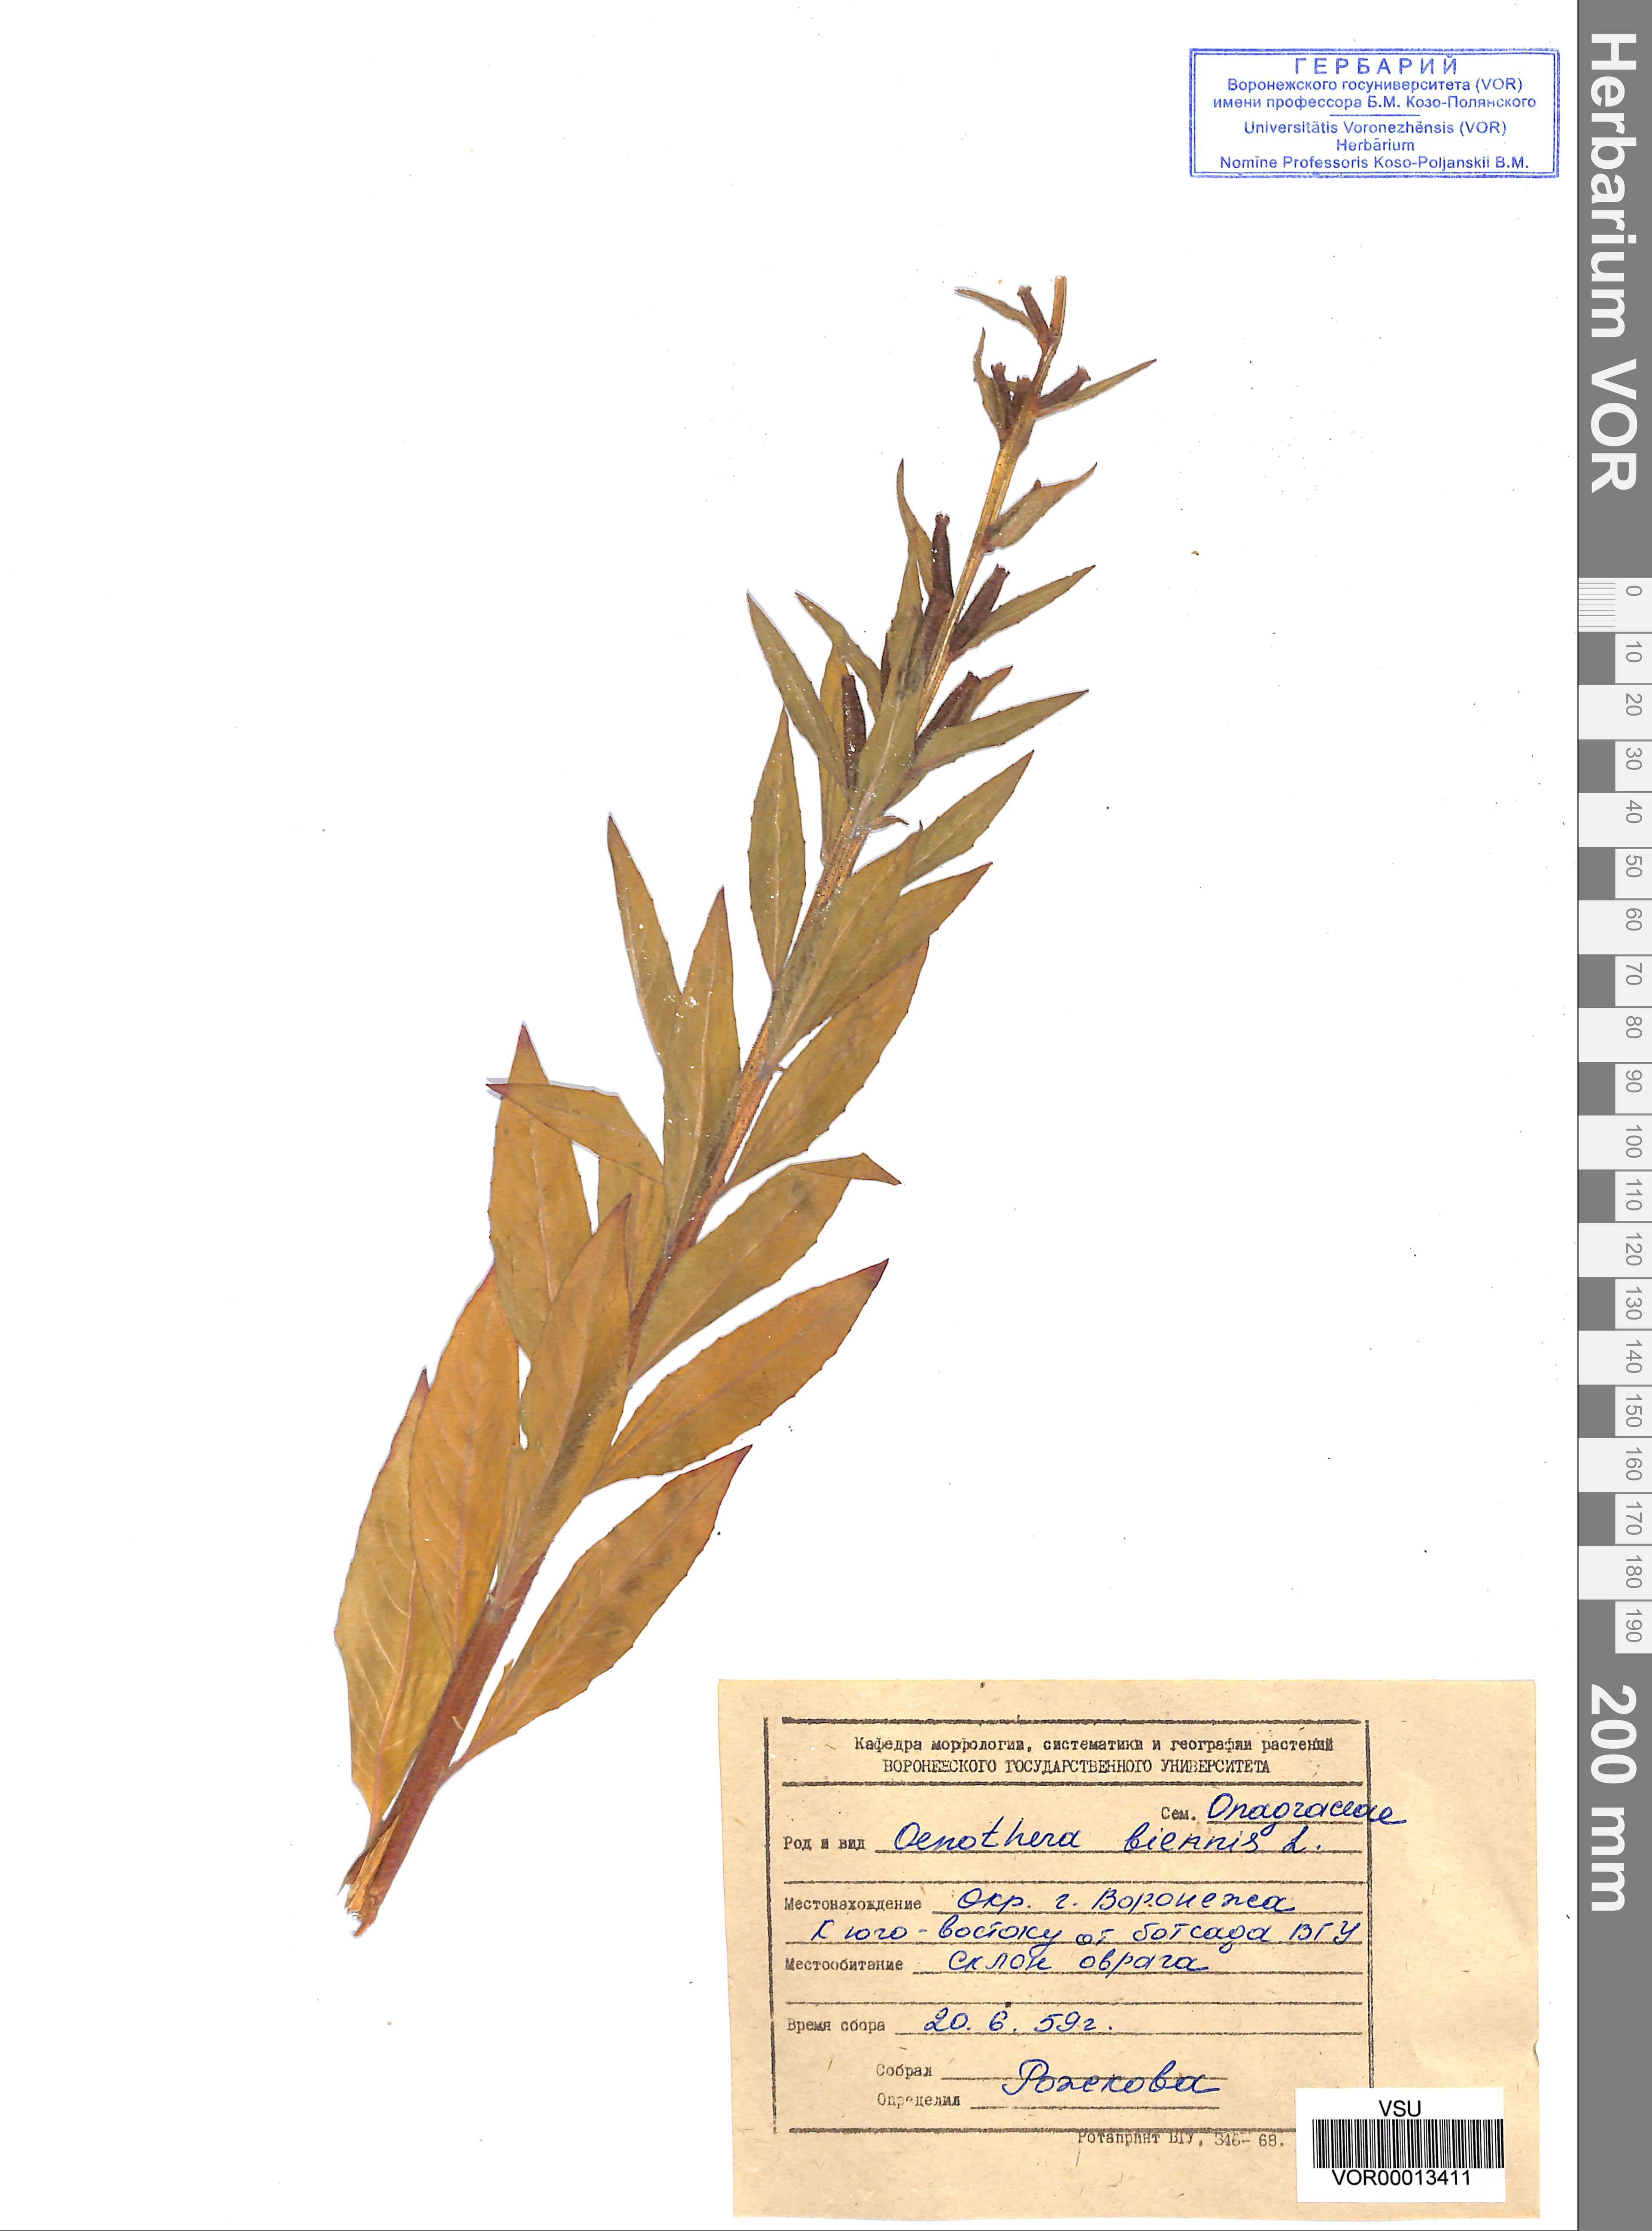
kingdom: Plantae
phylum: Tracheophyta
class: Magnoliopsida
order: Myrtales
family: Onagraceae
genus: Oenothera
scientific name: Oenothera biennis
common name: Common evening-primrose
